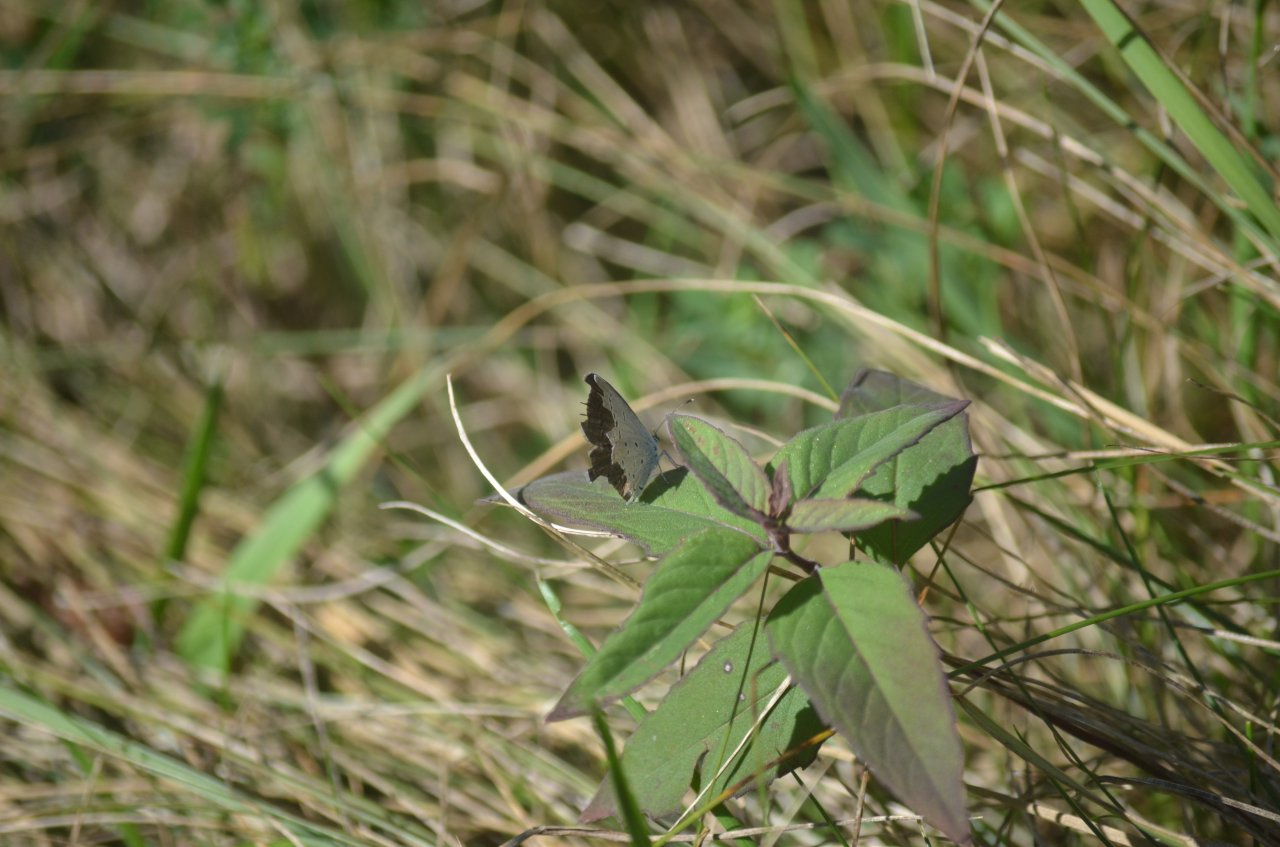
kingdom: Animalia
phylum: Arthropoda
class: Insecta
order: Lepidoptera
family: Lycaenidae
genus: Elkalyce
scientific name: Elkalyce comyntas
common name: Eastern Tailed-Blue
